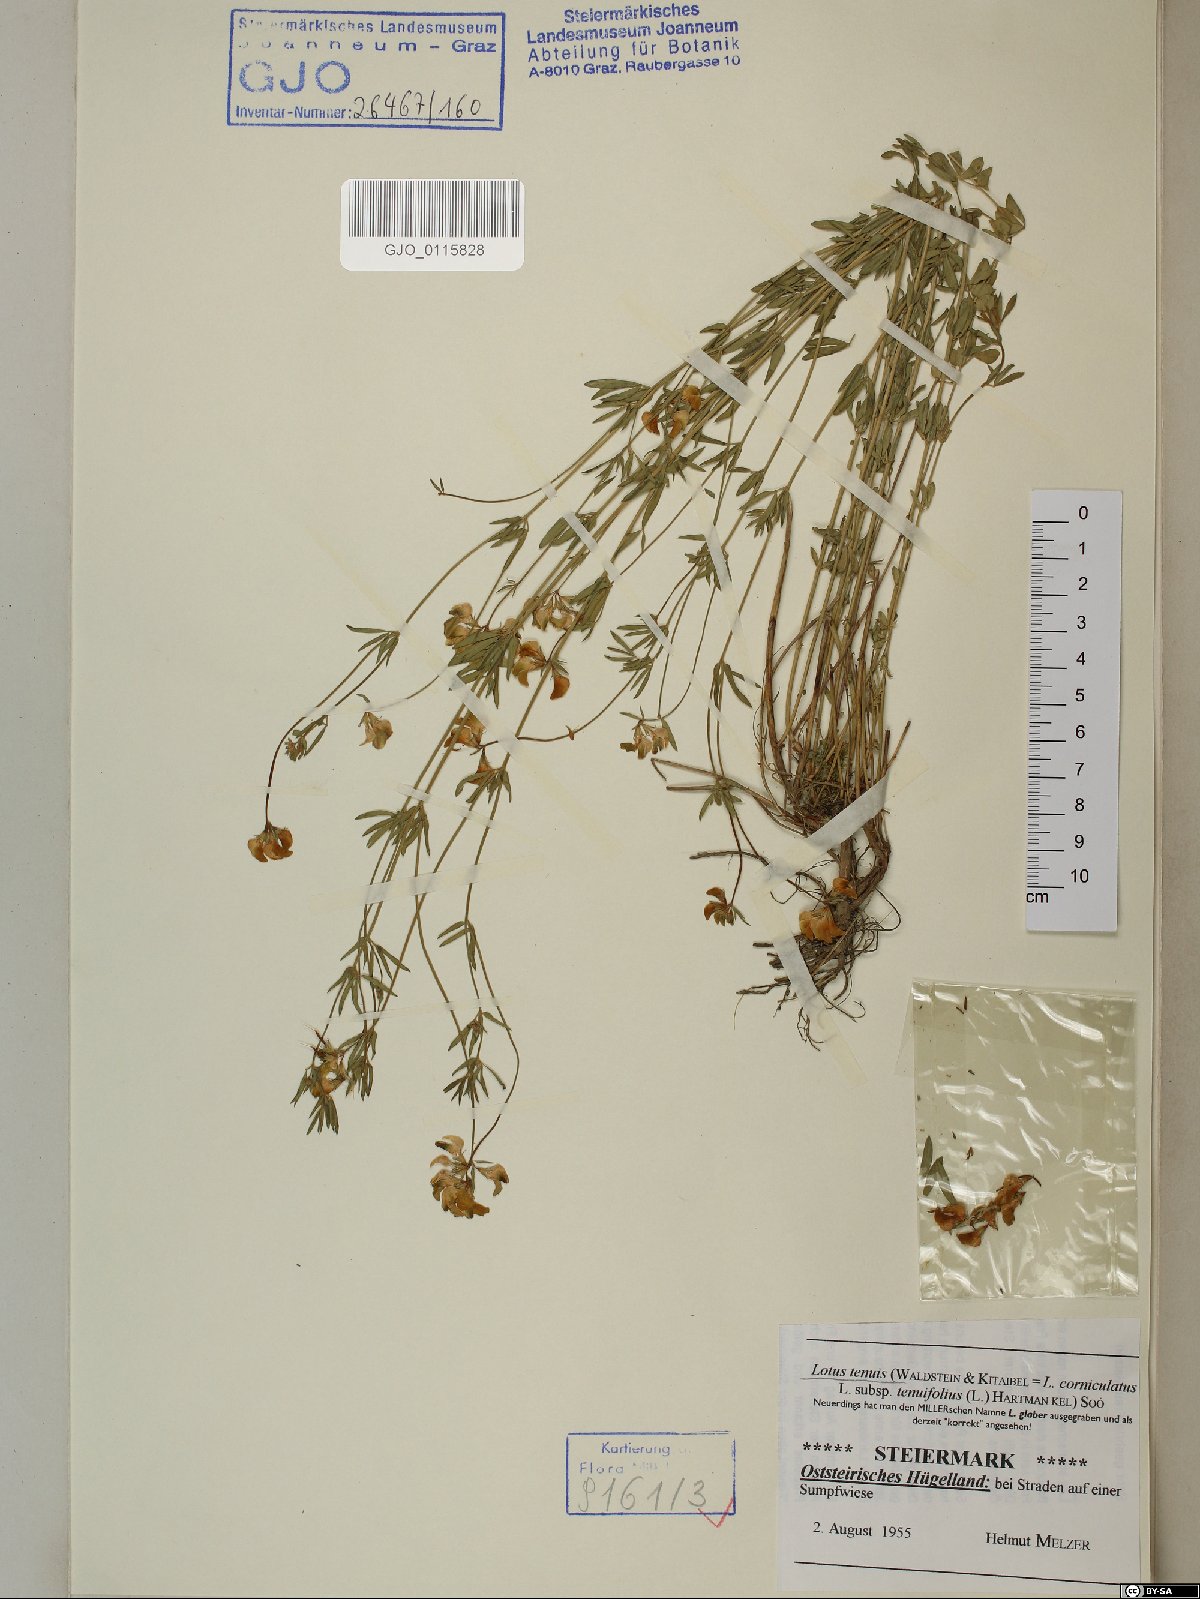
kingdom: Plantae
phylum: Tracheophyta
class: Magnoliopsida
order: Fabales
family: Fabaceae
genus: Lotus
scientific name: Lotus tenuis
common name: Narrow-leaved bird's-foot-trefoil
